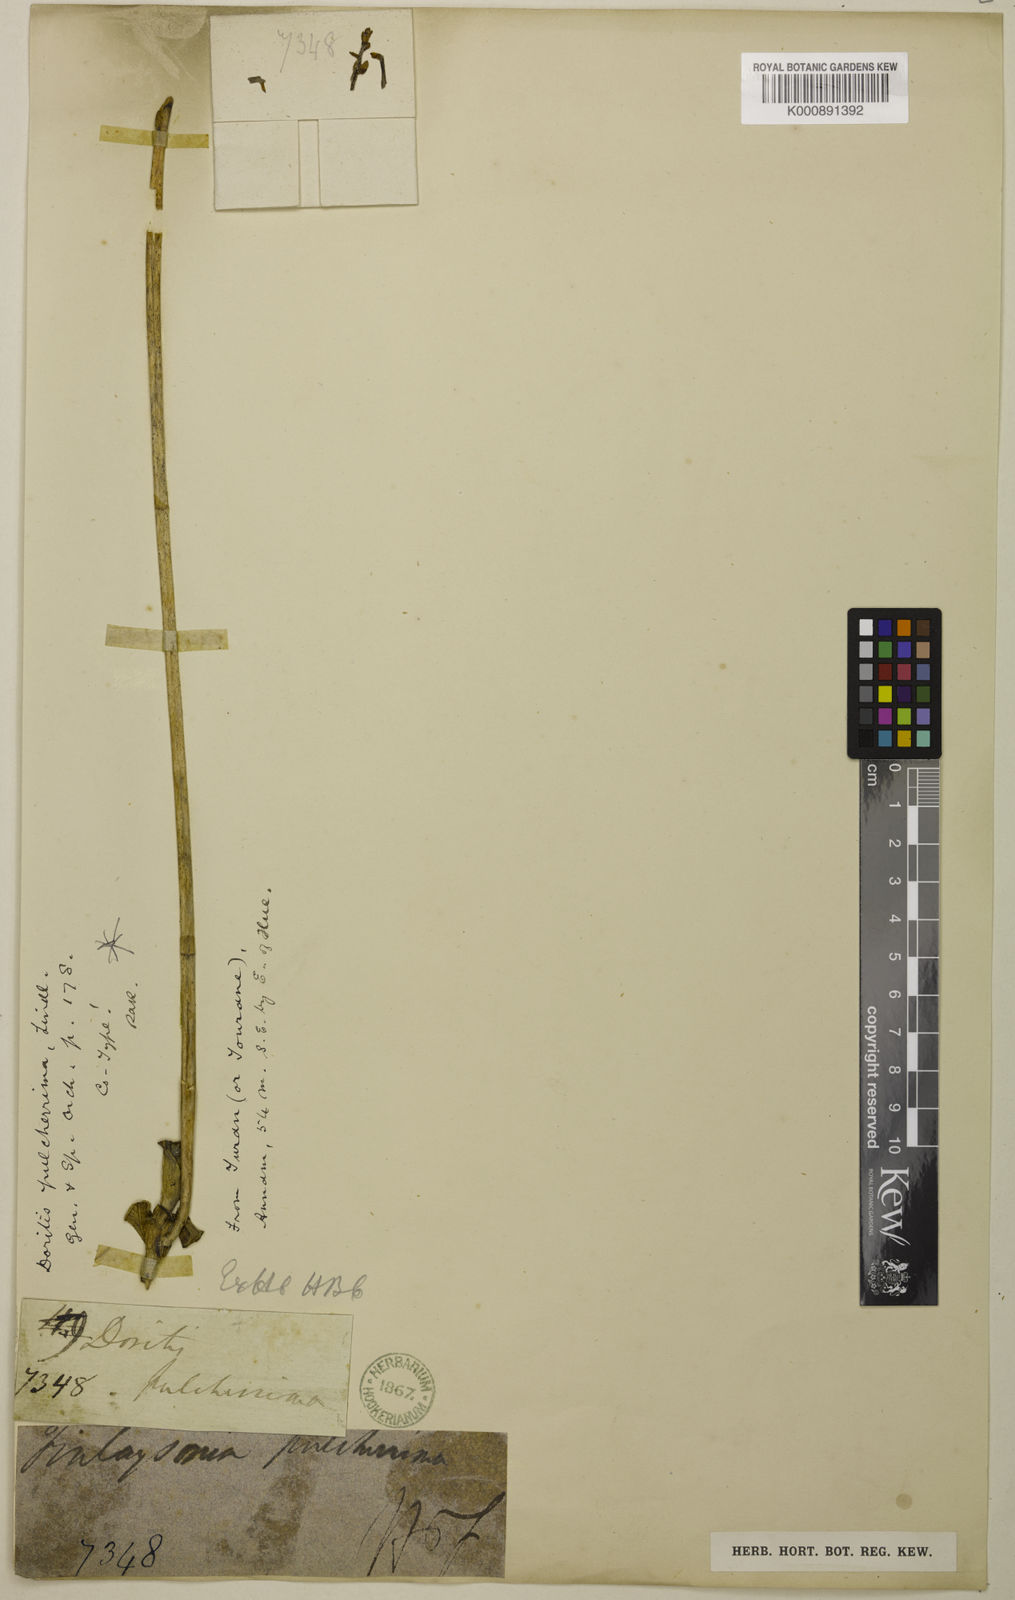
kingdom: Plantae
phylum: Tracheophyta
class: Liliopsida
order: Asparagales
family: Orchidaceae
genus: Phalaenopsis
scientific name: Phalaenopsis pulcherrima
